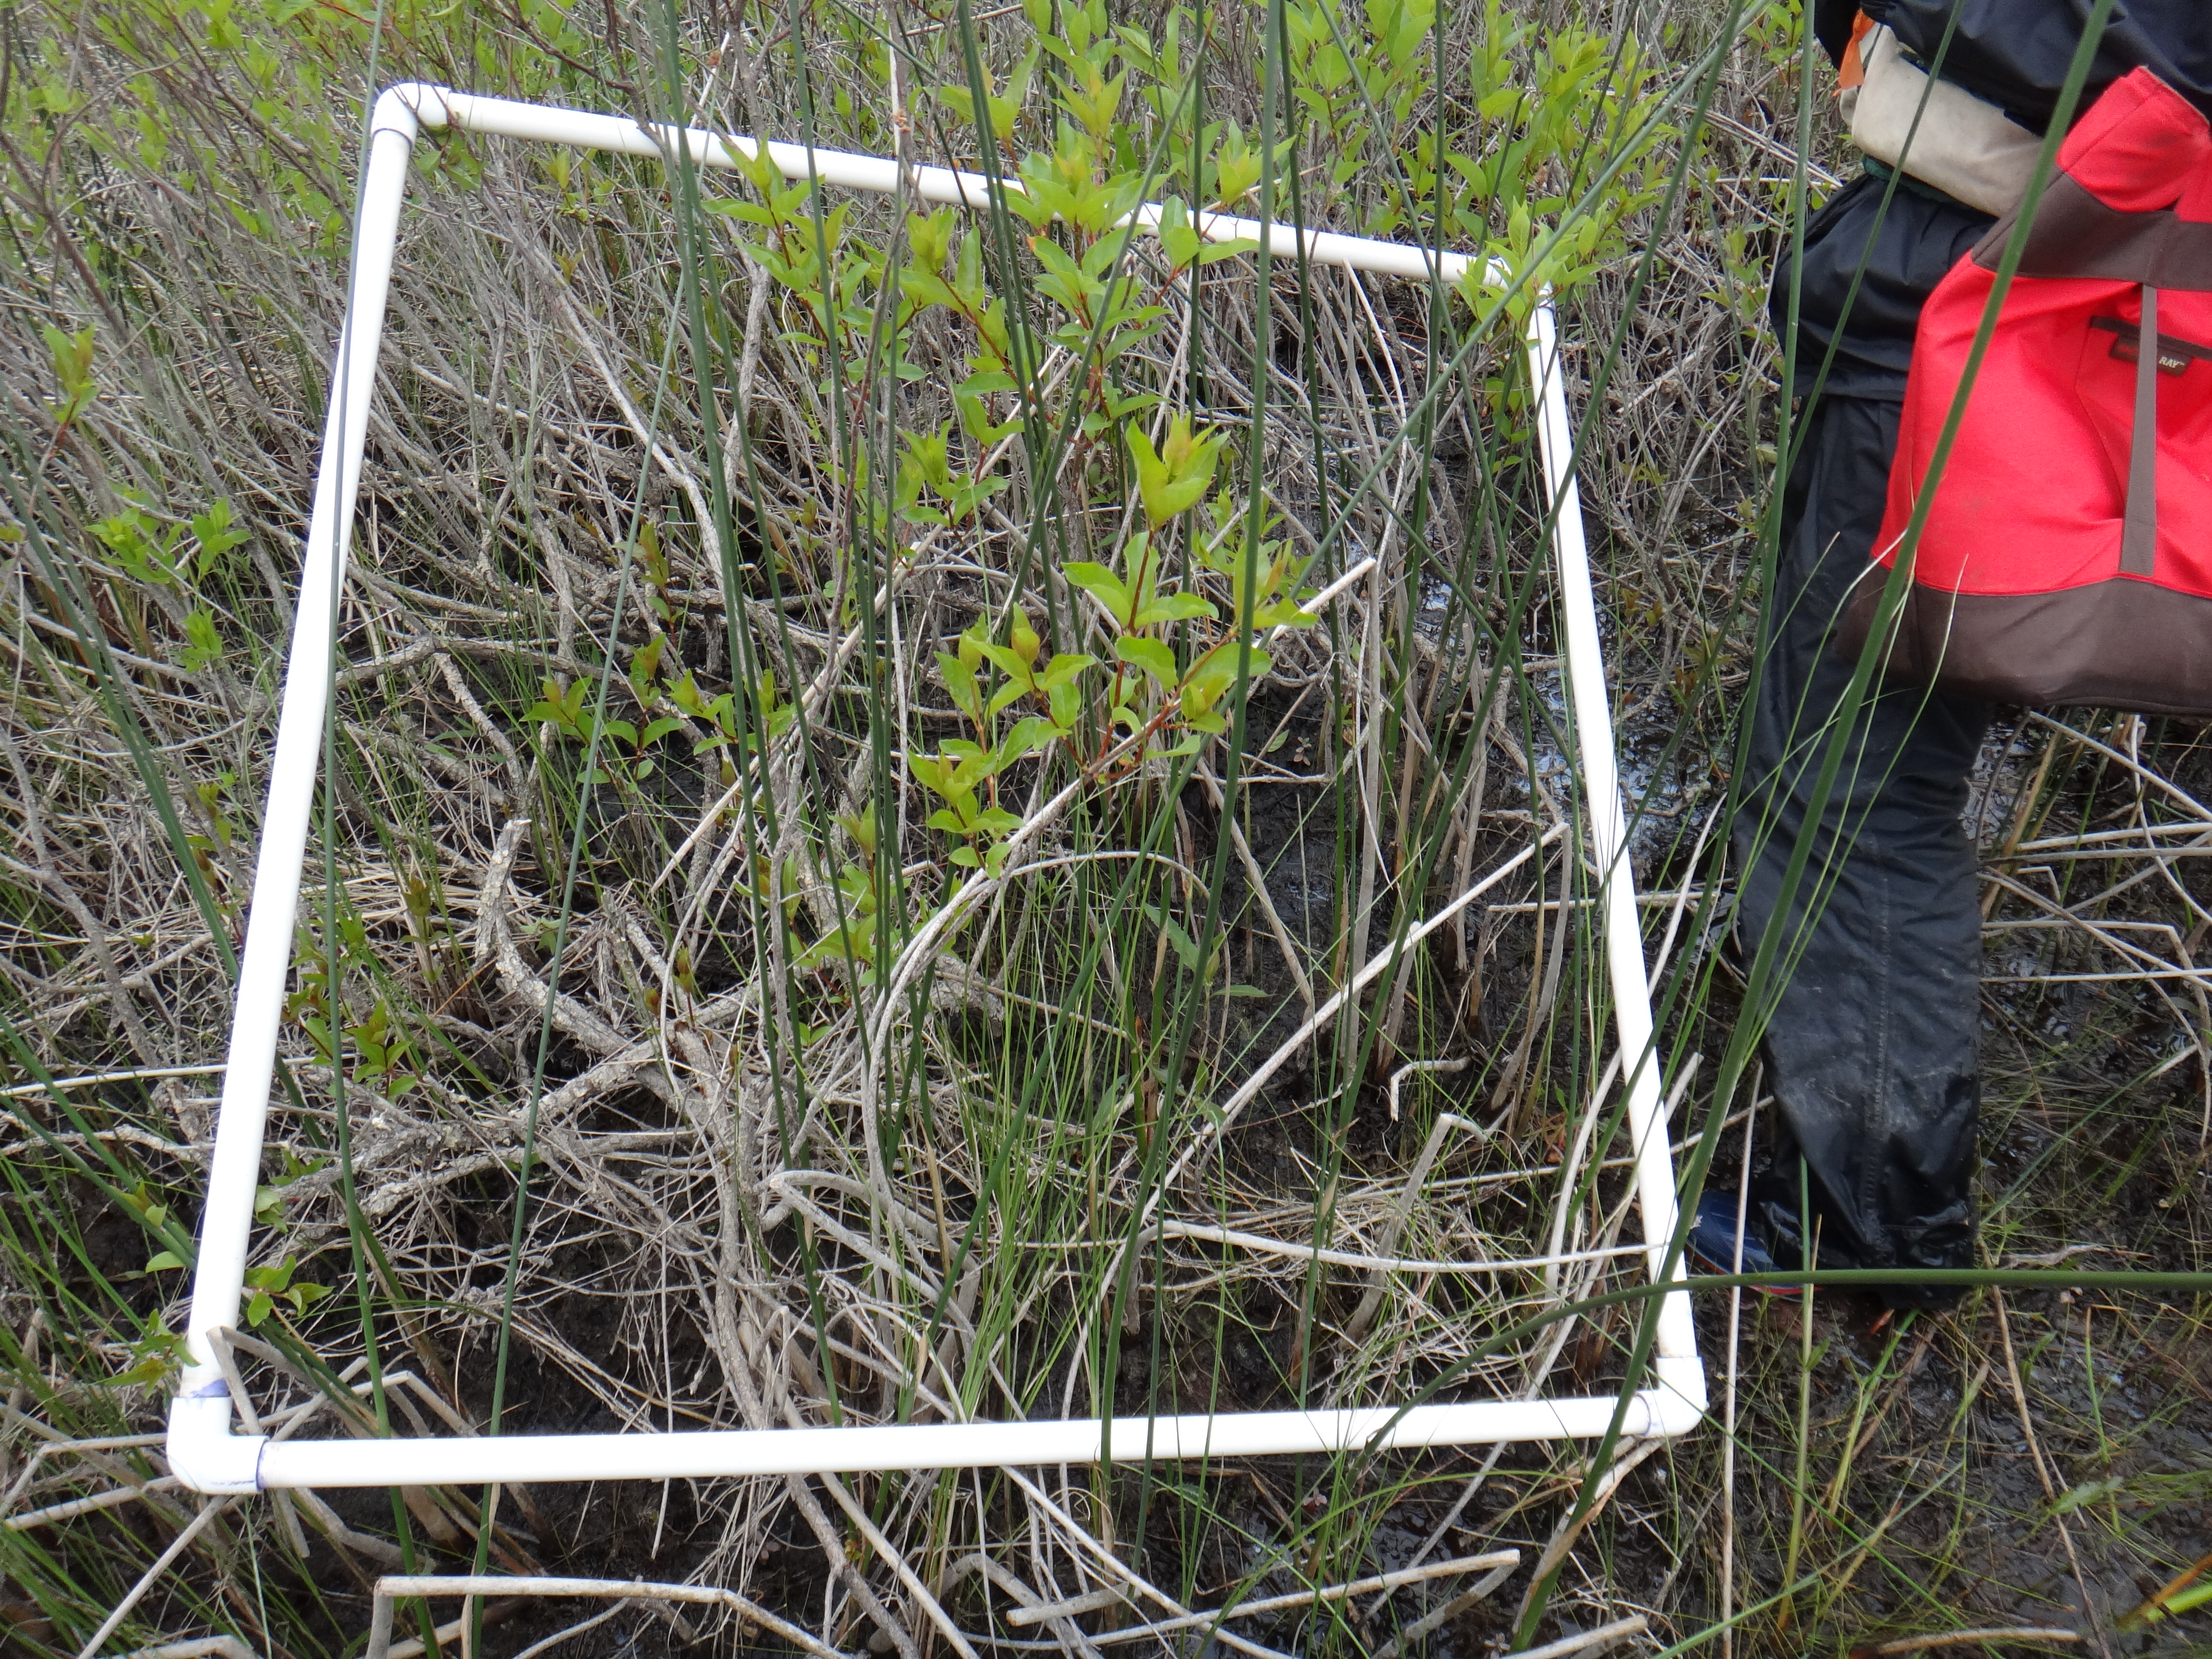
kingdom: Plantae
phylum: Tracheophyta
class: Magnoliopsida
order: Cornales
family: Cornaceae
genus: Cornus
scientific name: Cornus foemina
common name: Swamp dogwood
